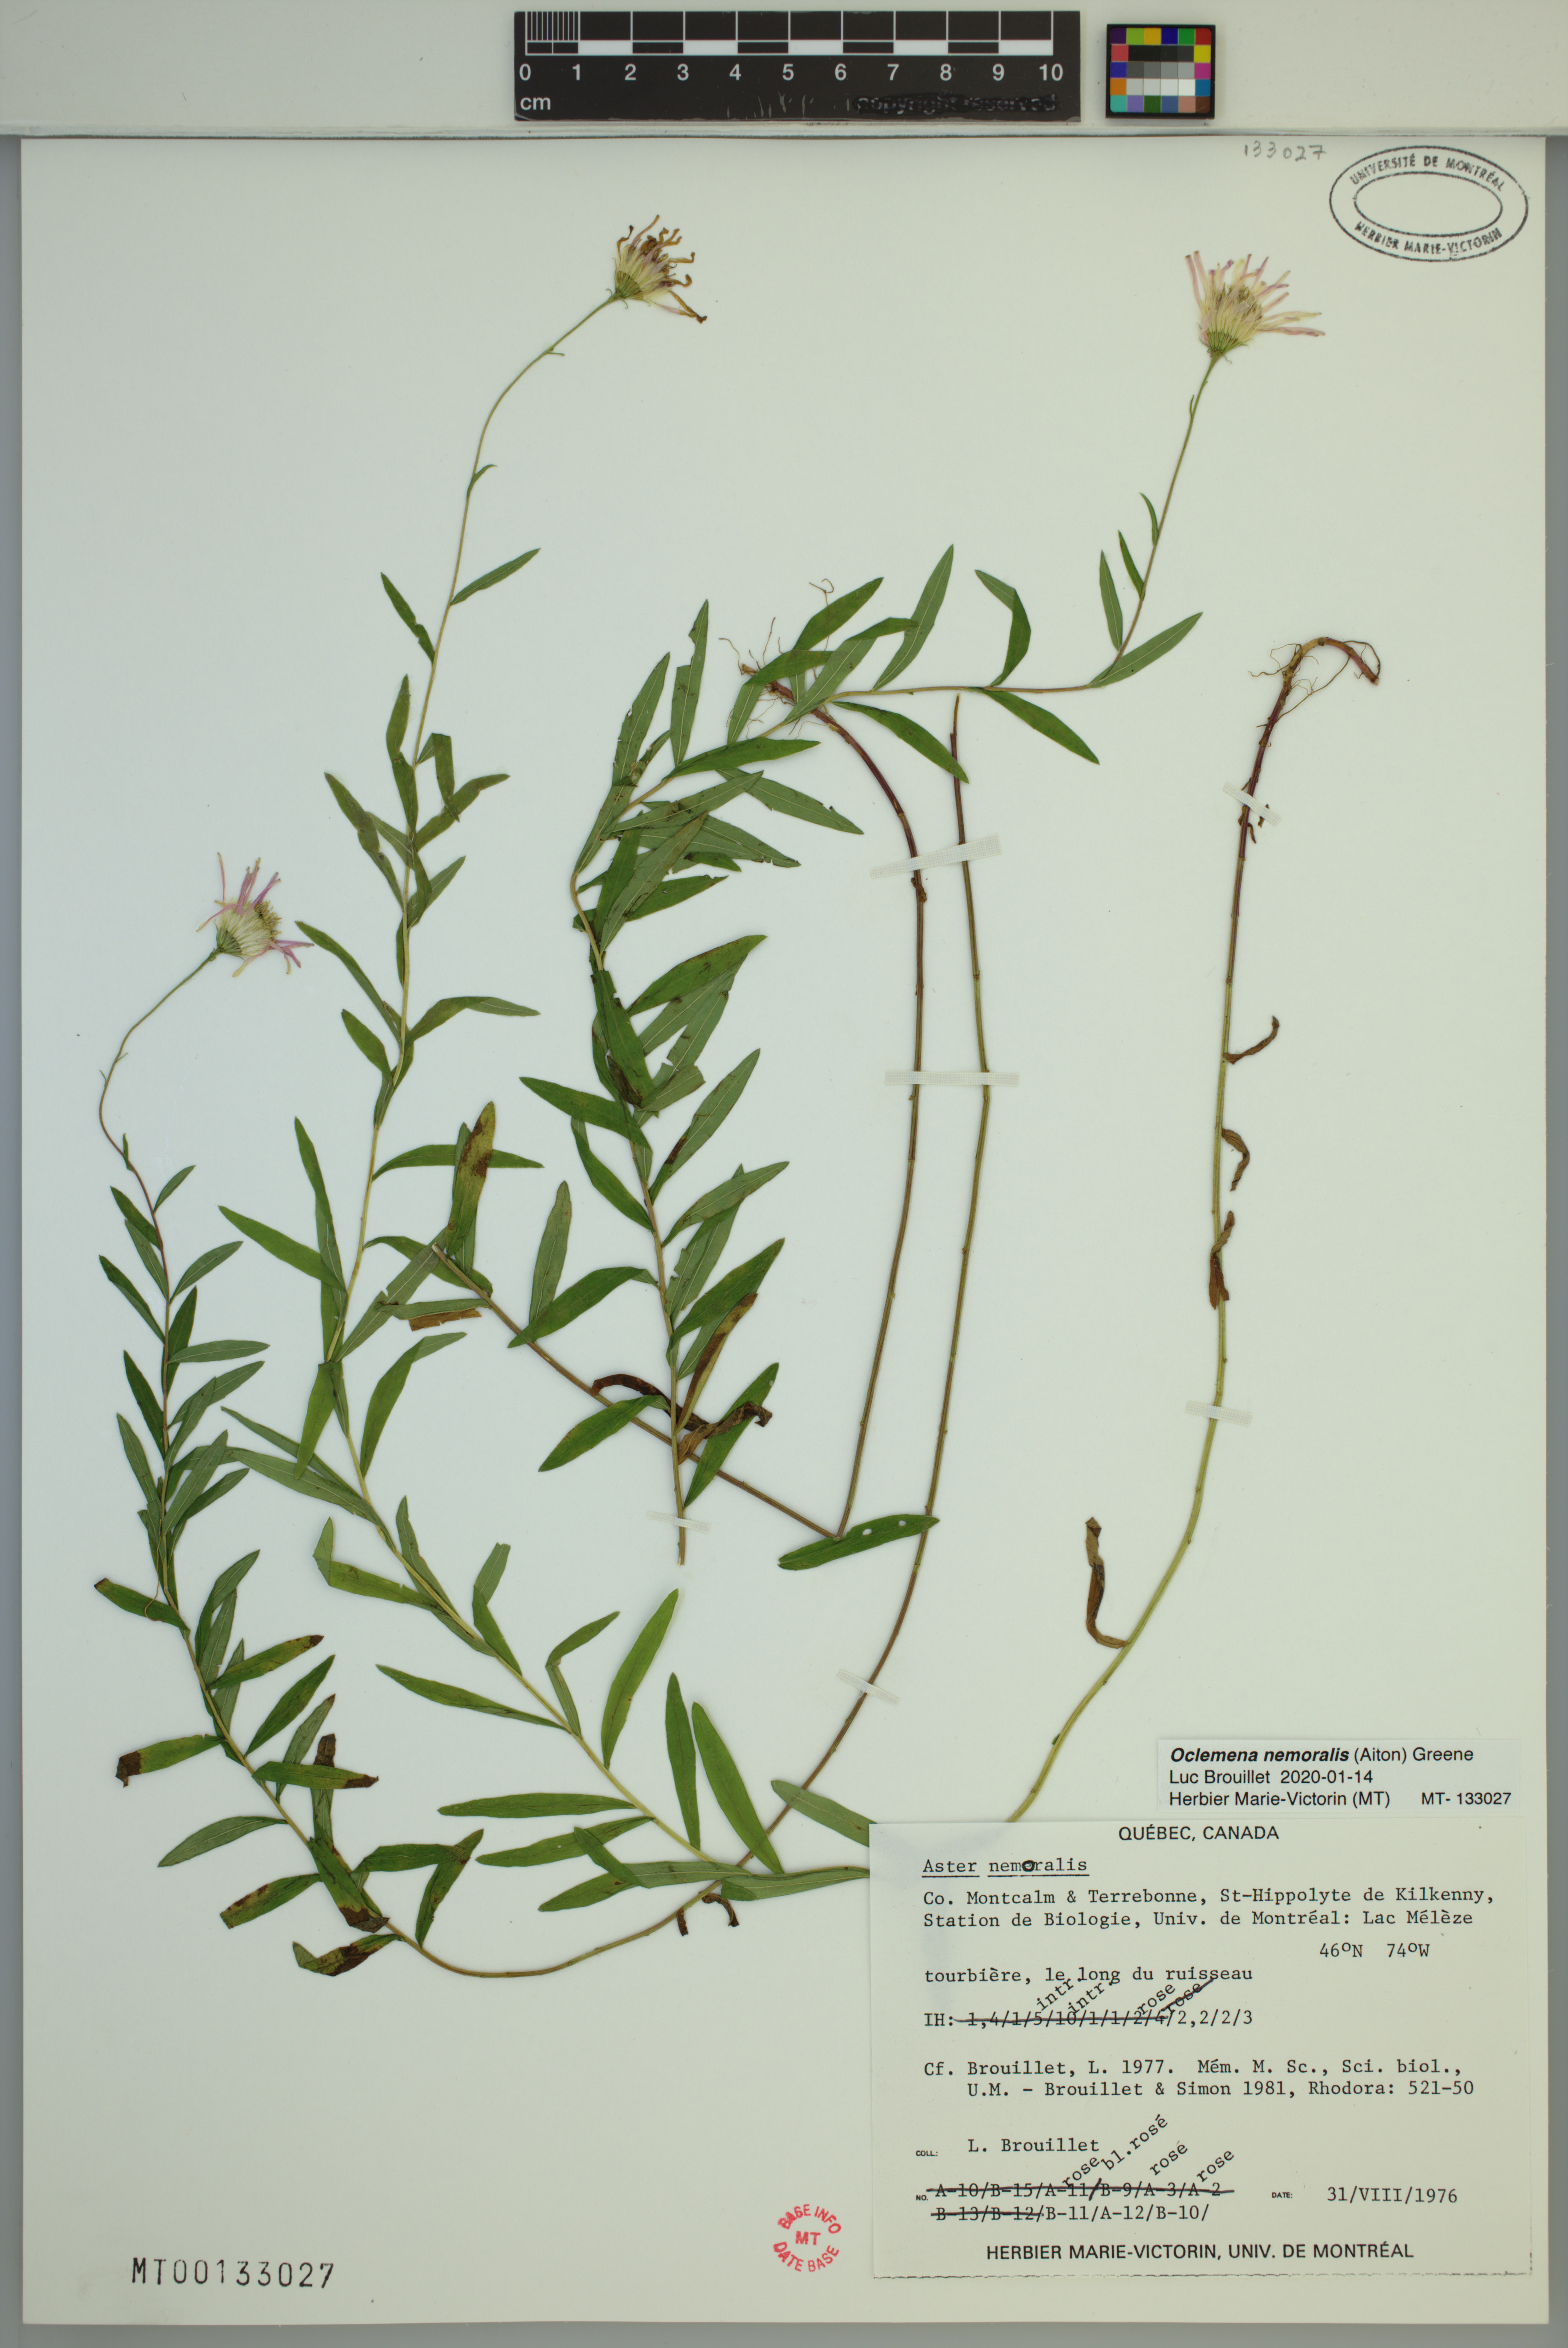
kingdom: Plantae
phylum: Tracheophyta
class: Magnoliopsida
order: Asterales
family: Asteraceae
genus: Oclemena
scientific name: Oclemena nemoralis
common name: Bog aster
